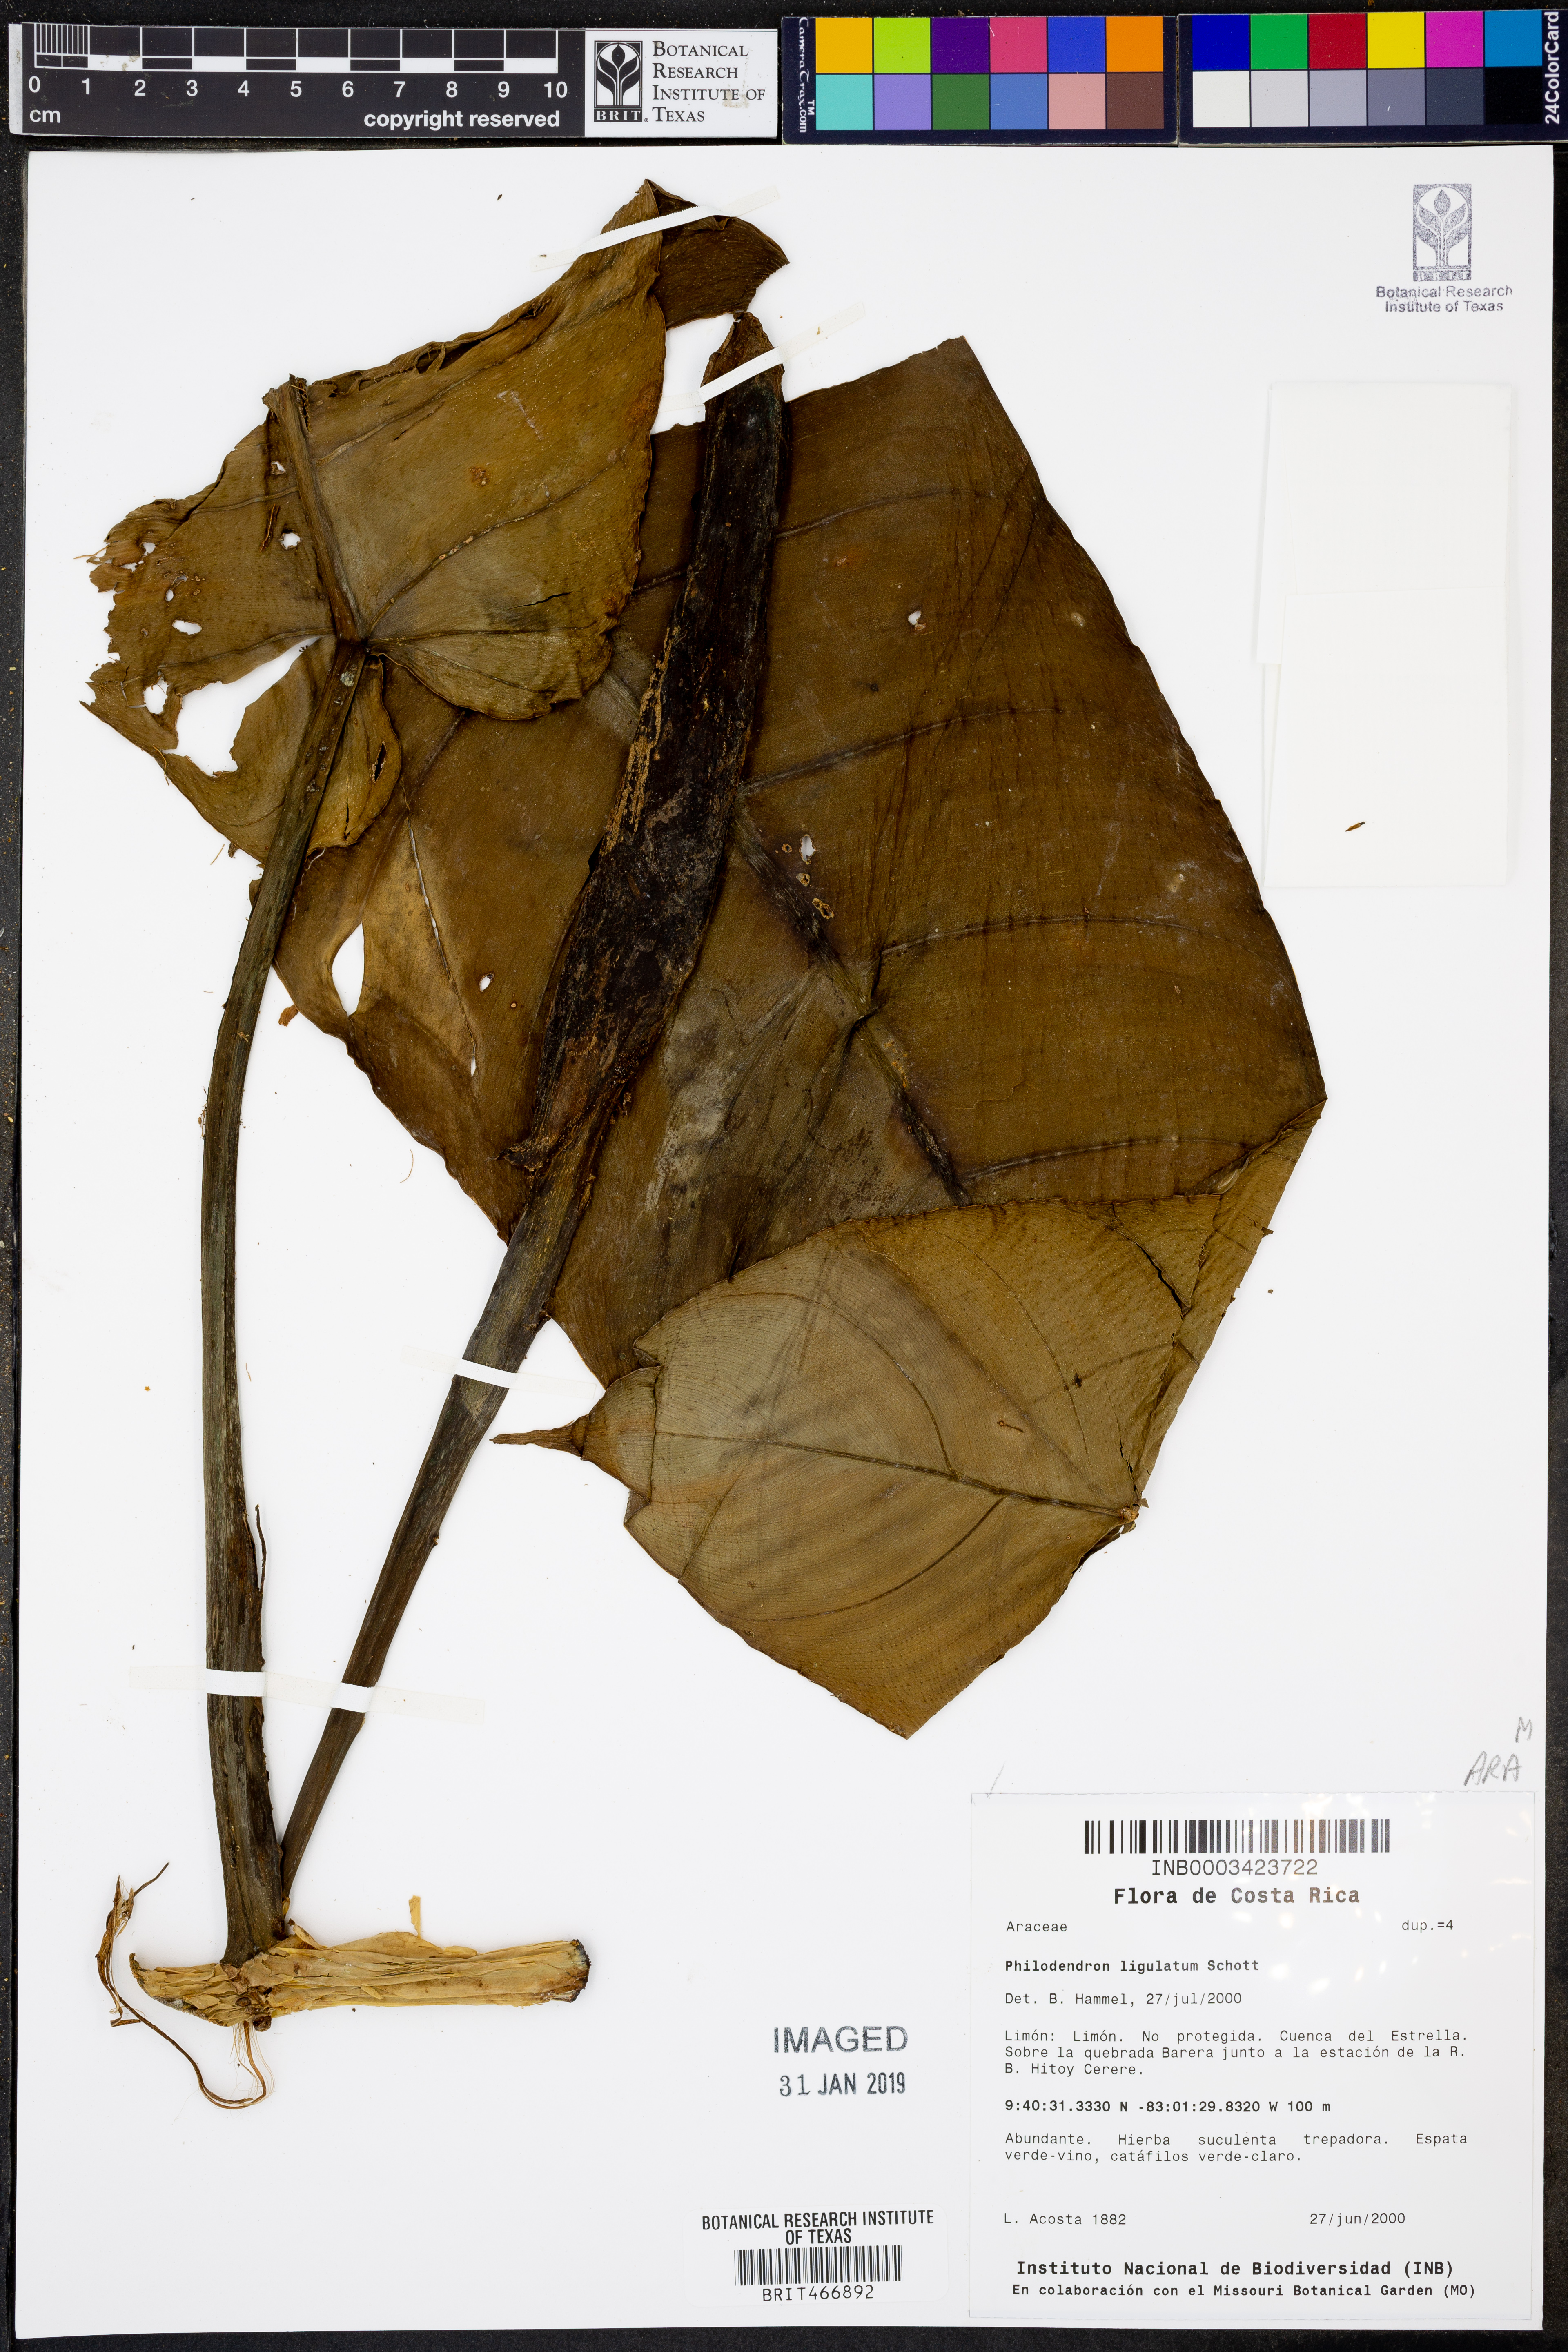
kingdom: Plantae
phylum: Tracheophyta
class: Liliopsida
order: Alismatales
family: Araceae
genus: Philodendron
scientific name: Philodendron ligulatum
